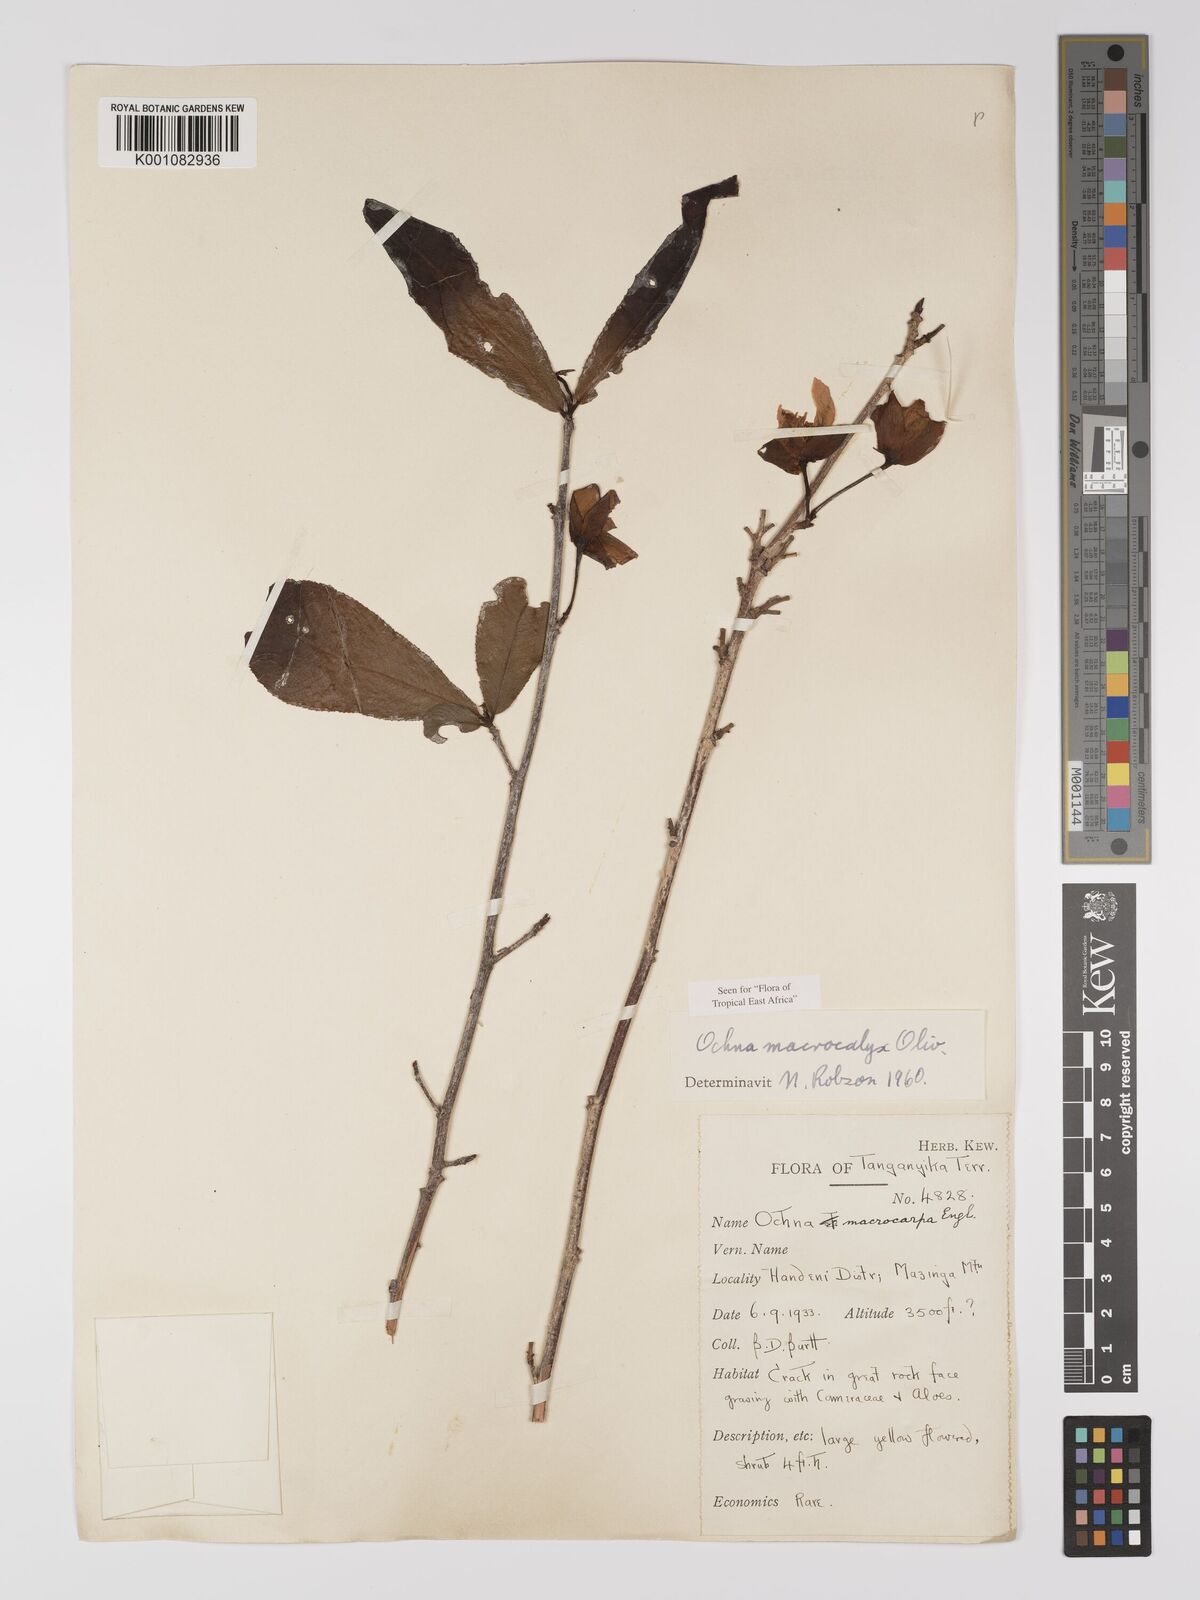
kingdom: Plantae
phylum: Tracheophyta
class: Magnoliopsida
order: Malpighiales
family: Ochnaceae
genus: Ochna
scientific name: Ochna macrocalyx
